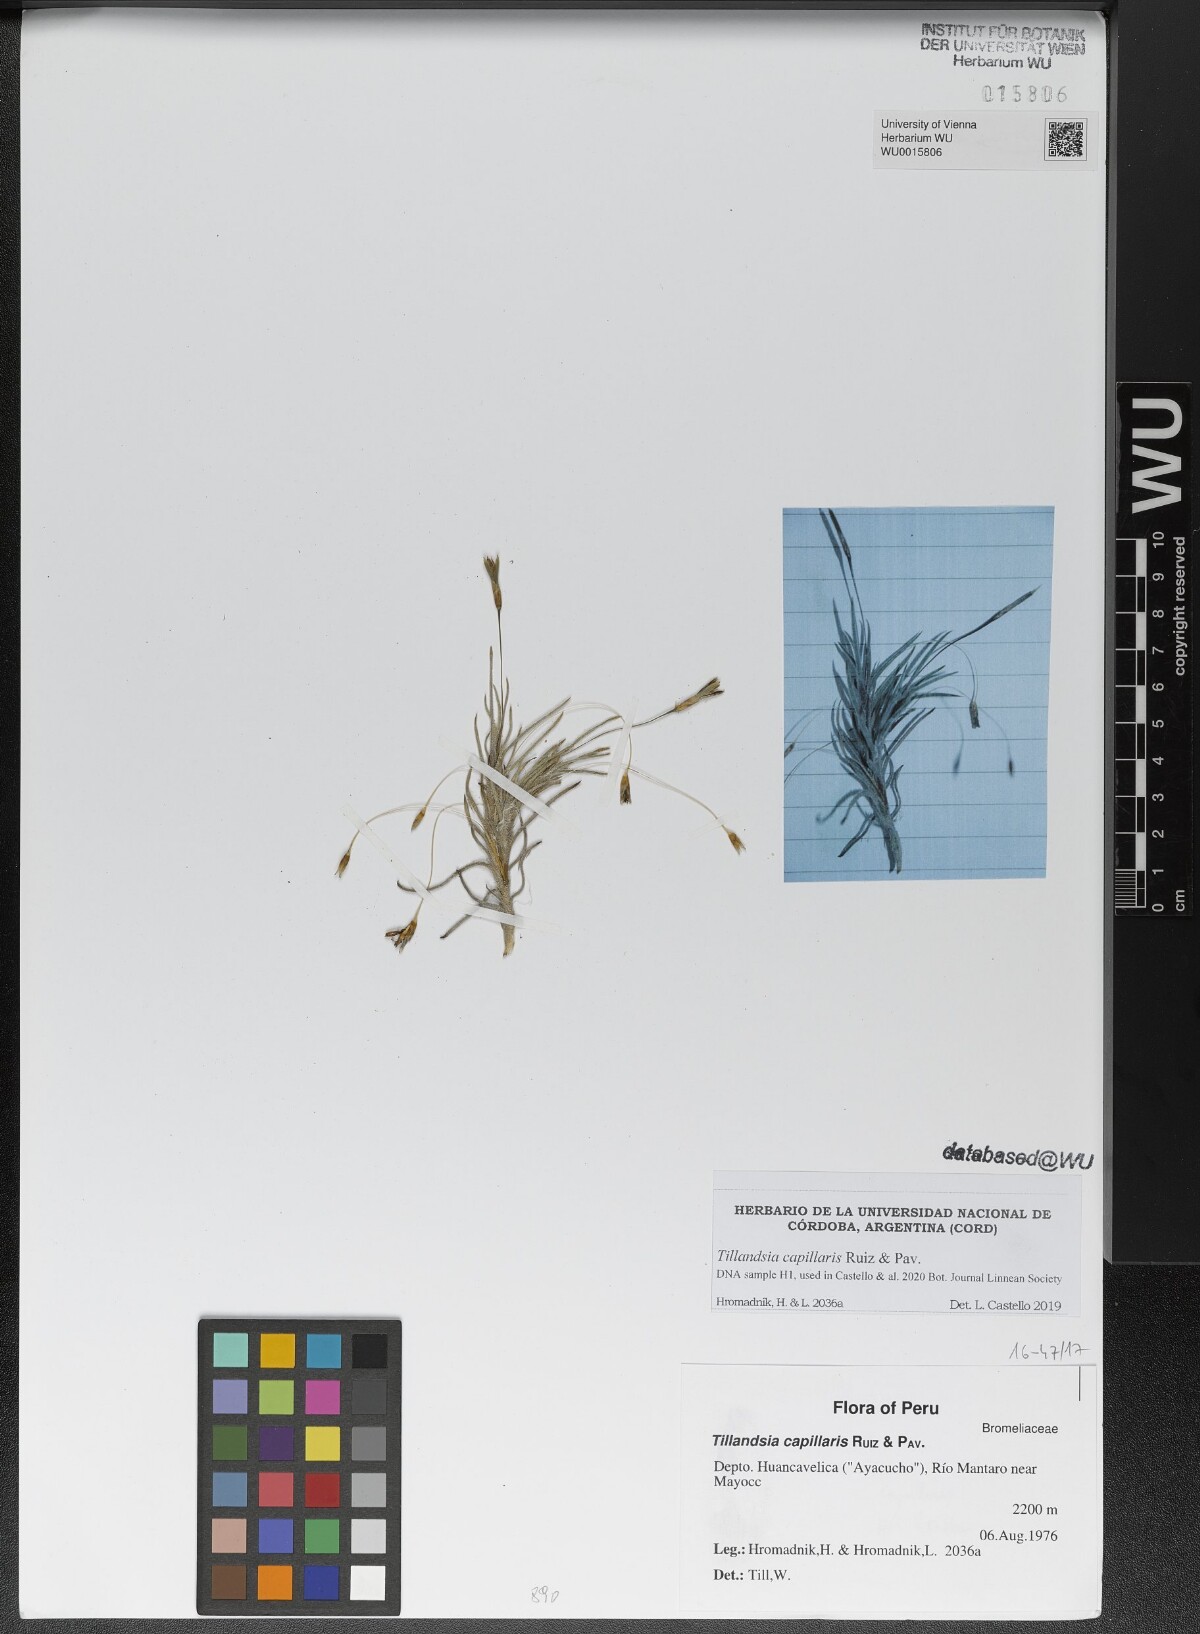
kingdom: Plantae
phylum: Tracheophyta
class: Liliopsida
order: Poales
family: Bromeliaceae
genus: Tillandsia
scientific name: Tillandsia capillaris
